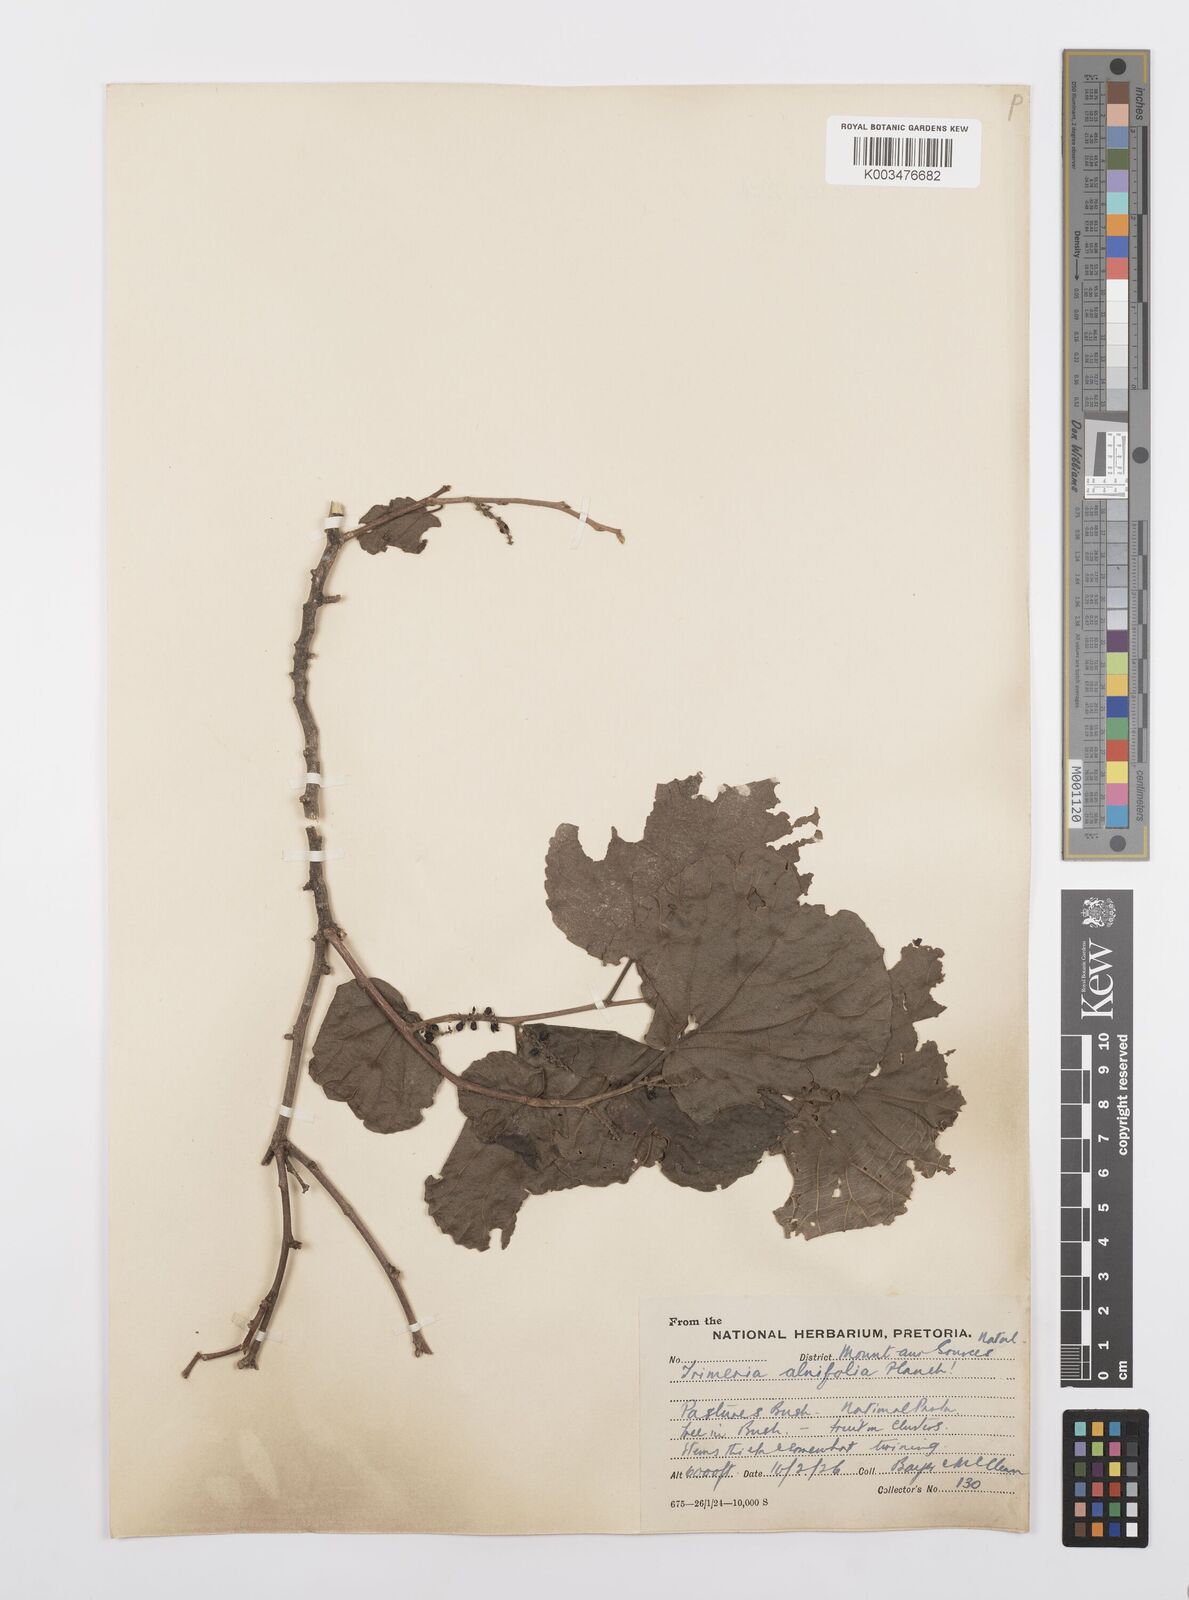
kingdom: Plantae
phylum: Tracheophyta
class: Magnoliopsida
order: Malpighiales
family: Salicaceae
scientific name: Salicaceae
